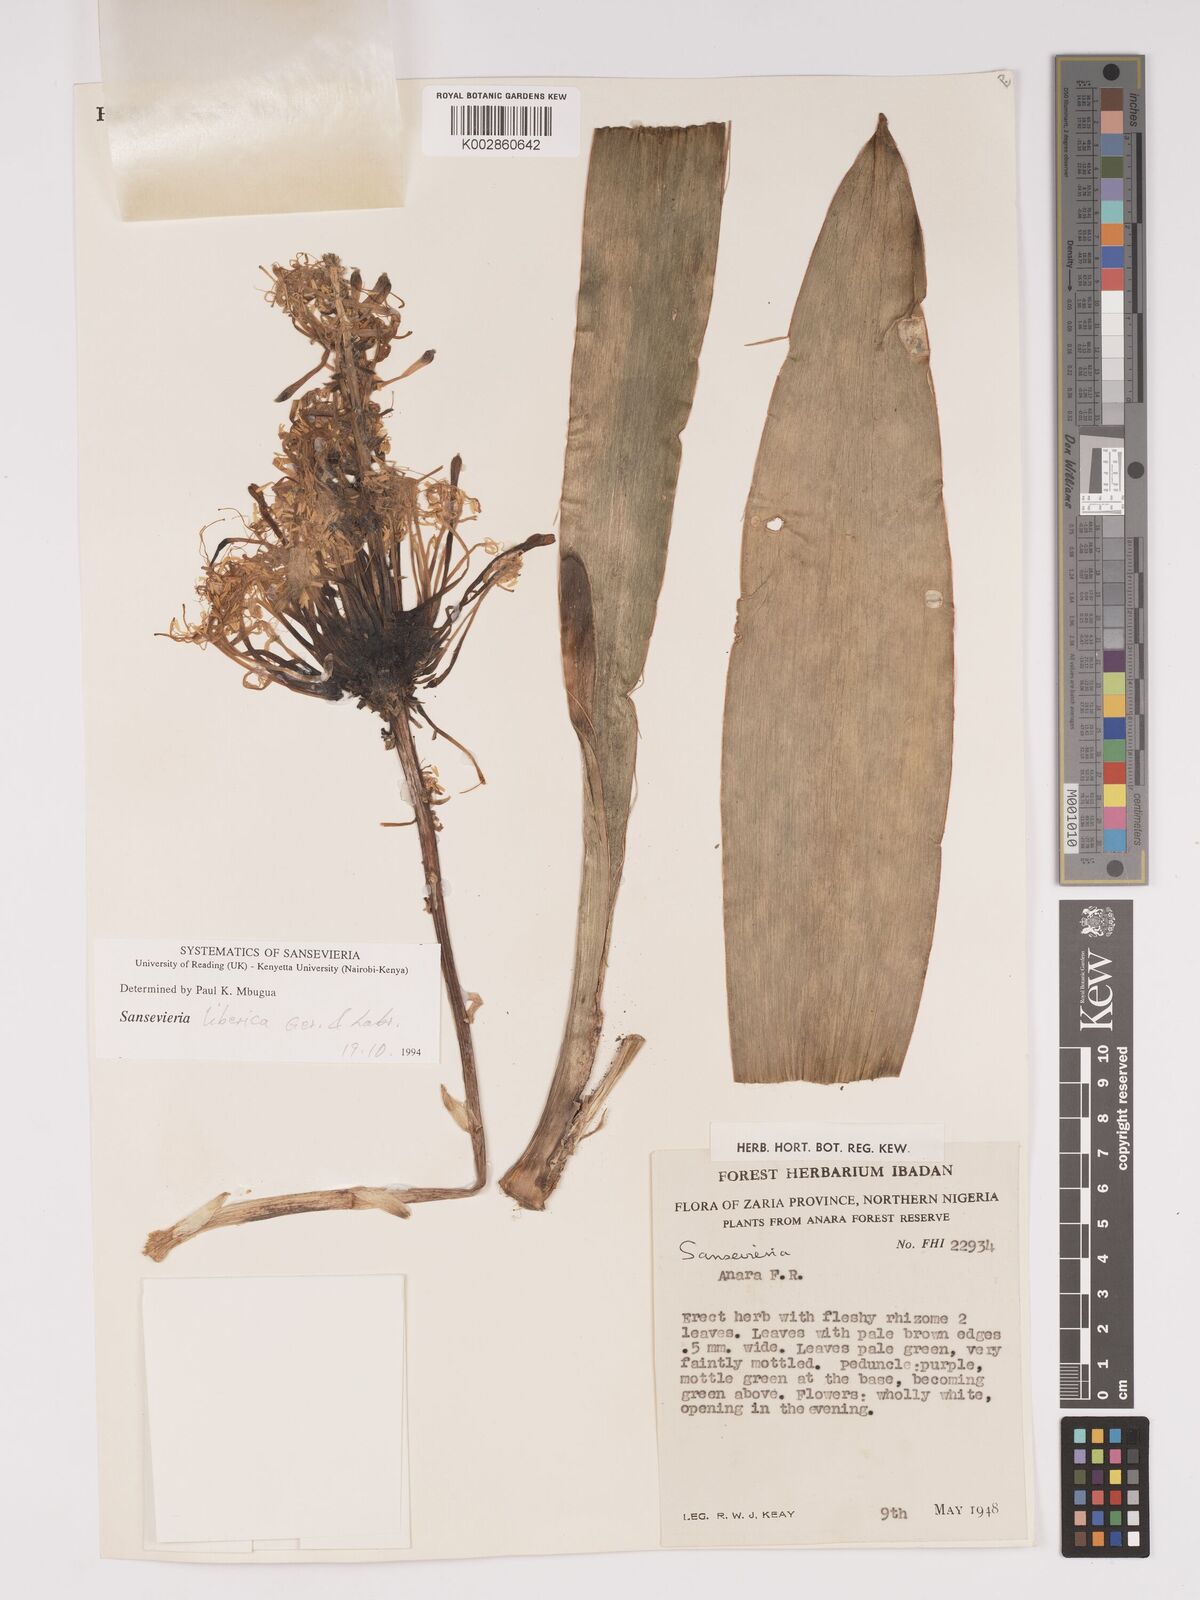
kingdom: Plantae
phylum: Tracheophyta
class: Liliopsida
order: Asparagales
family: Asparagaceae
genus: Dracaena
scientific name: Dracaena liberica
